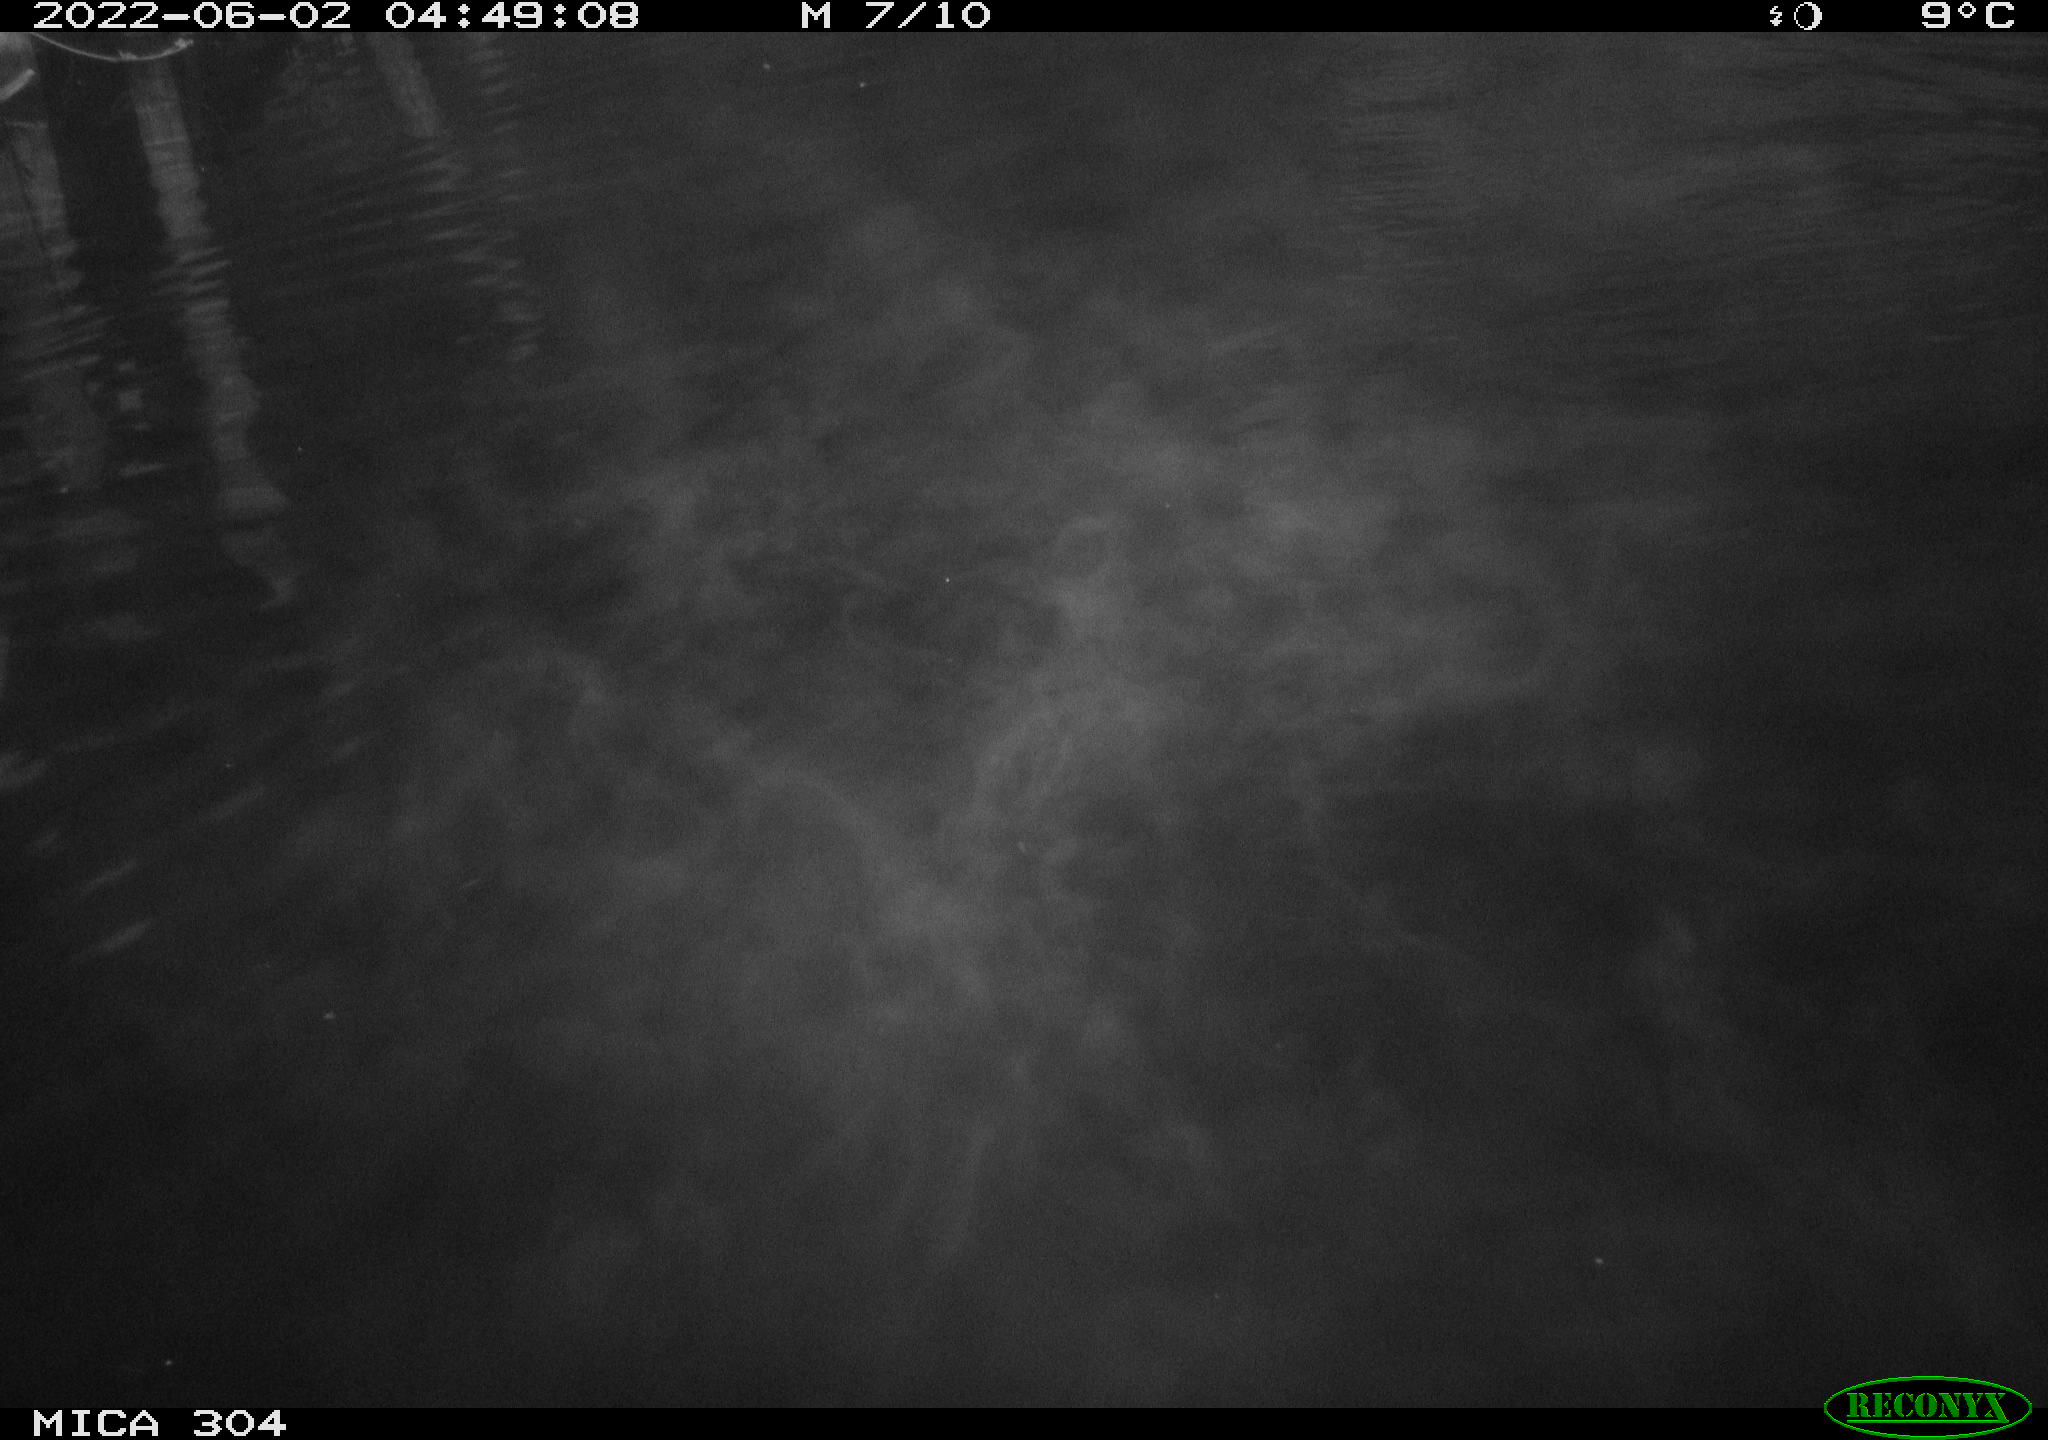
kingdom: Animalia
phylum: Chordata
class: Aves
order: Anseriformes
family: Anatidae
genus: Anas
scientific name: Anas platyrhynchos
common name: Mallard
